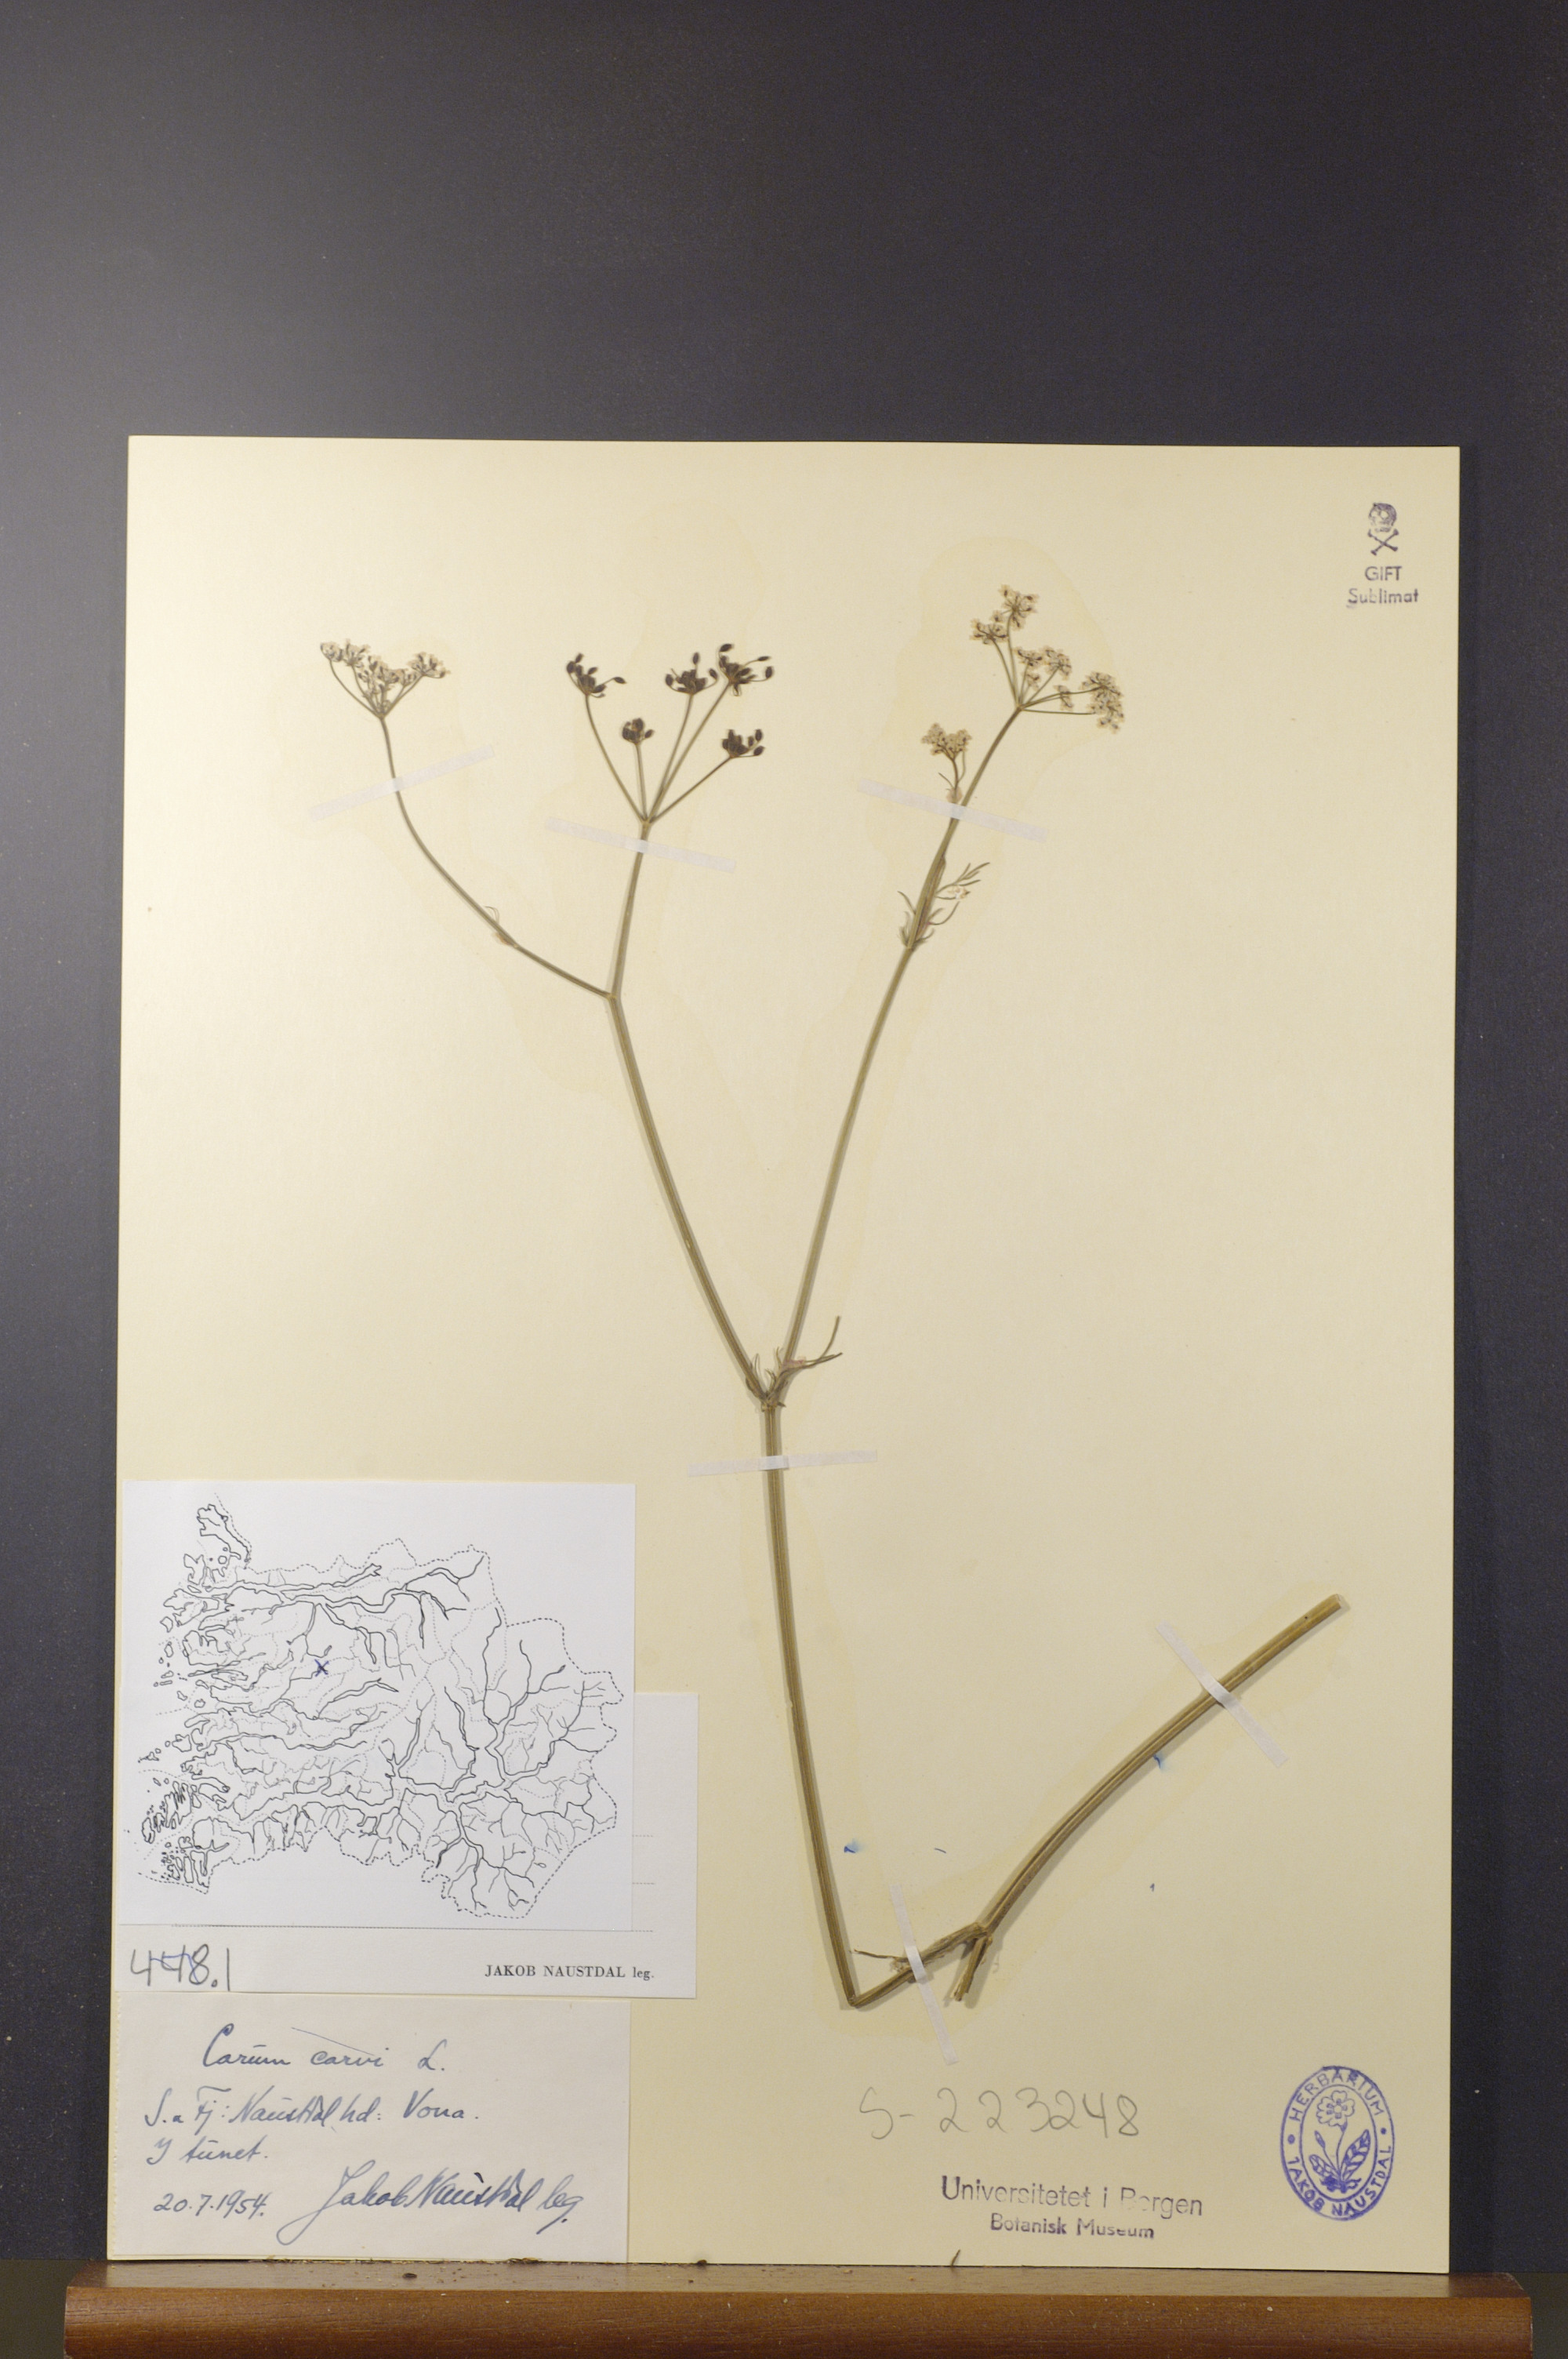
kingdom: Plantae
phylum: Tracheophyta
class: Magnoliopsida
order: Apiales
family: Apiaceae
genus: Carum
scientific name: Carum carvi
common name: Caraway
